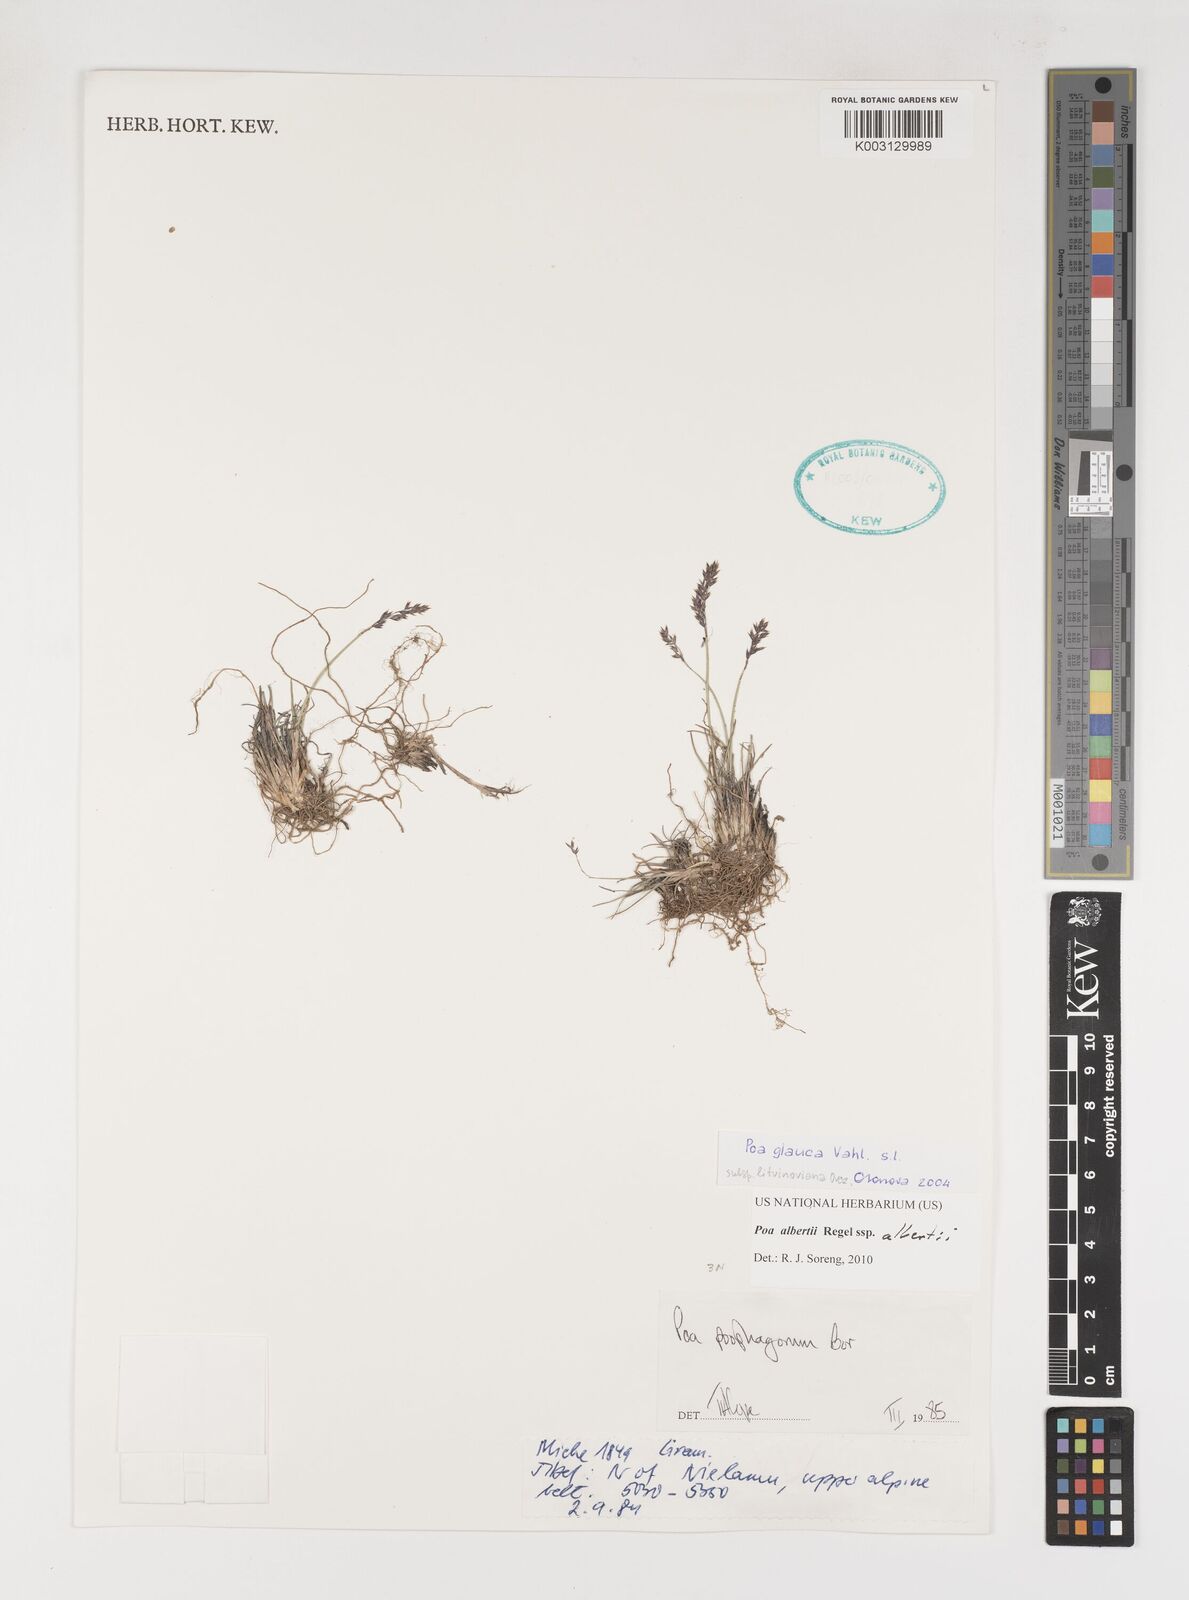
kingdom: Plantae
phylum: Tracheophyta
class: Liliopsida
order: Poales
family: Poaceae
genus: Poa
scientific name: Poa alberti
